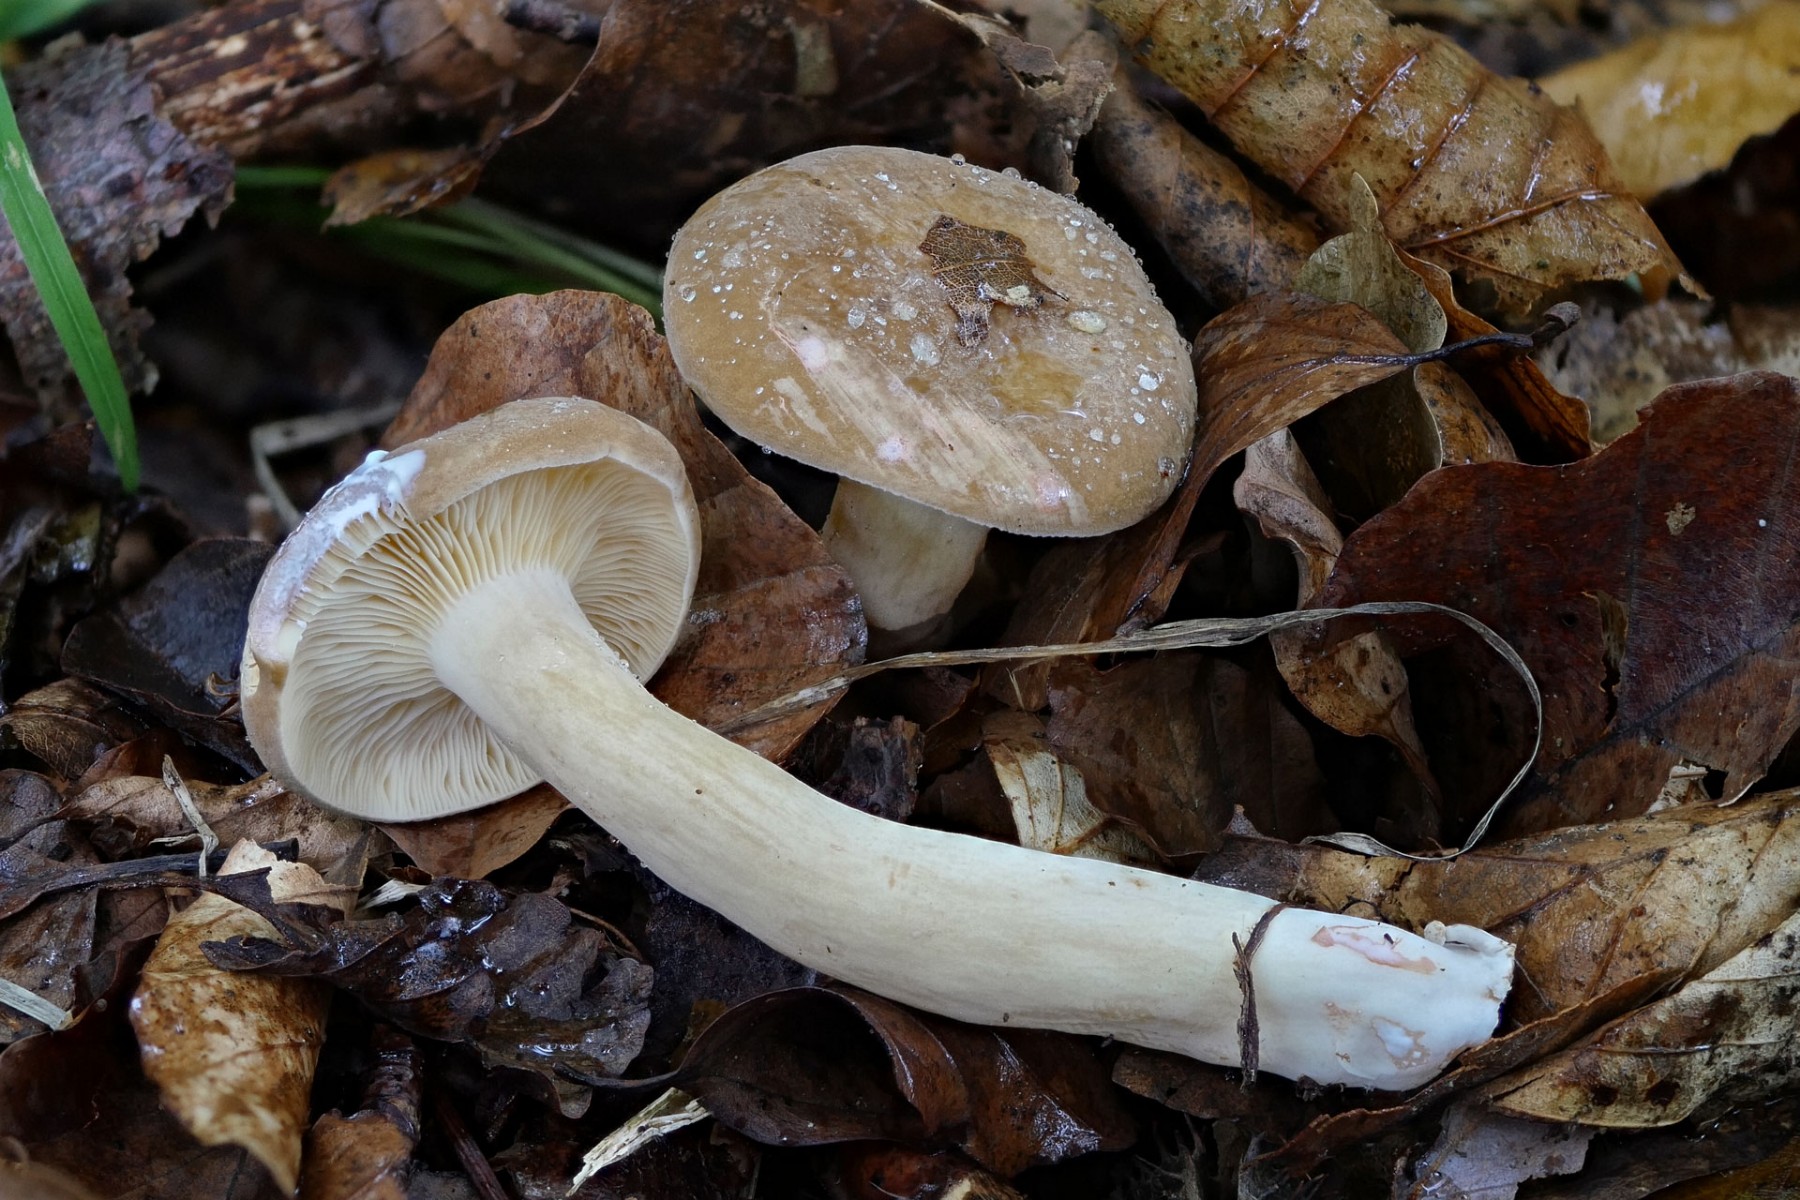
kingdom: Fungi
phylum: Basidiomycota
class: Agaricomycetes
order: Russulales
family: Russulaceae
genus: Lactarius
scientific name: Lactarius azonites
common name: røggrå mælkehat
